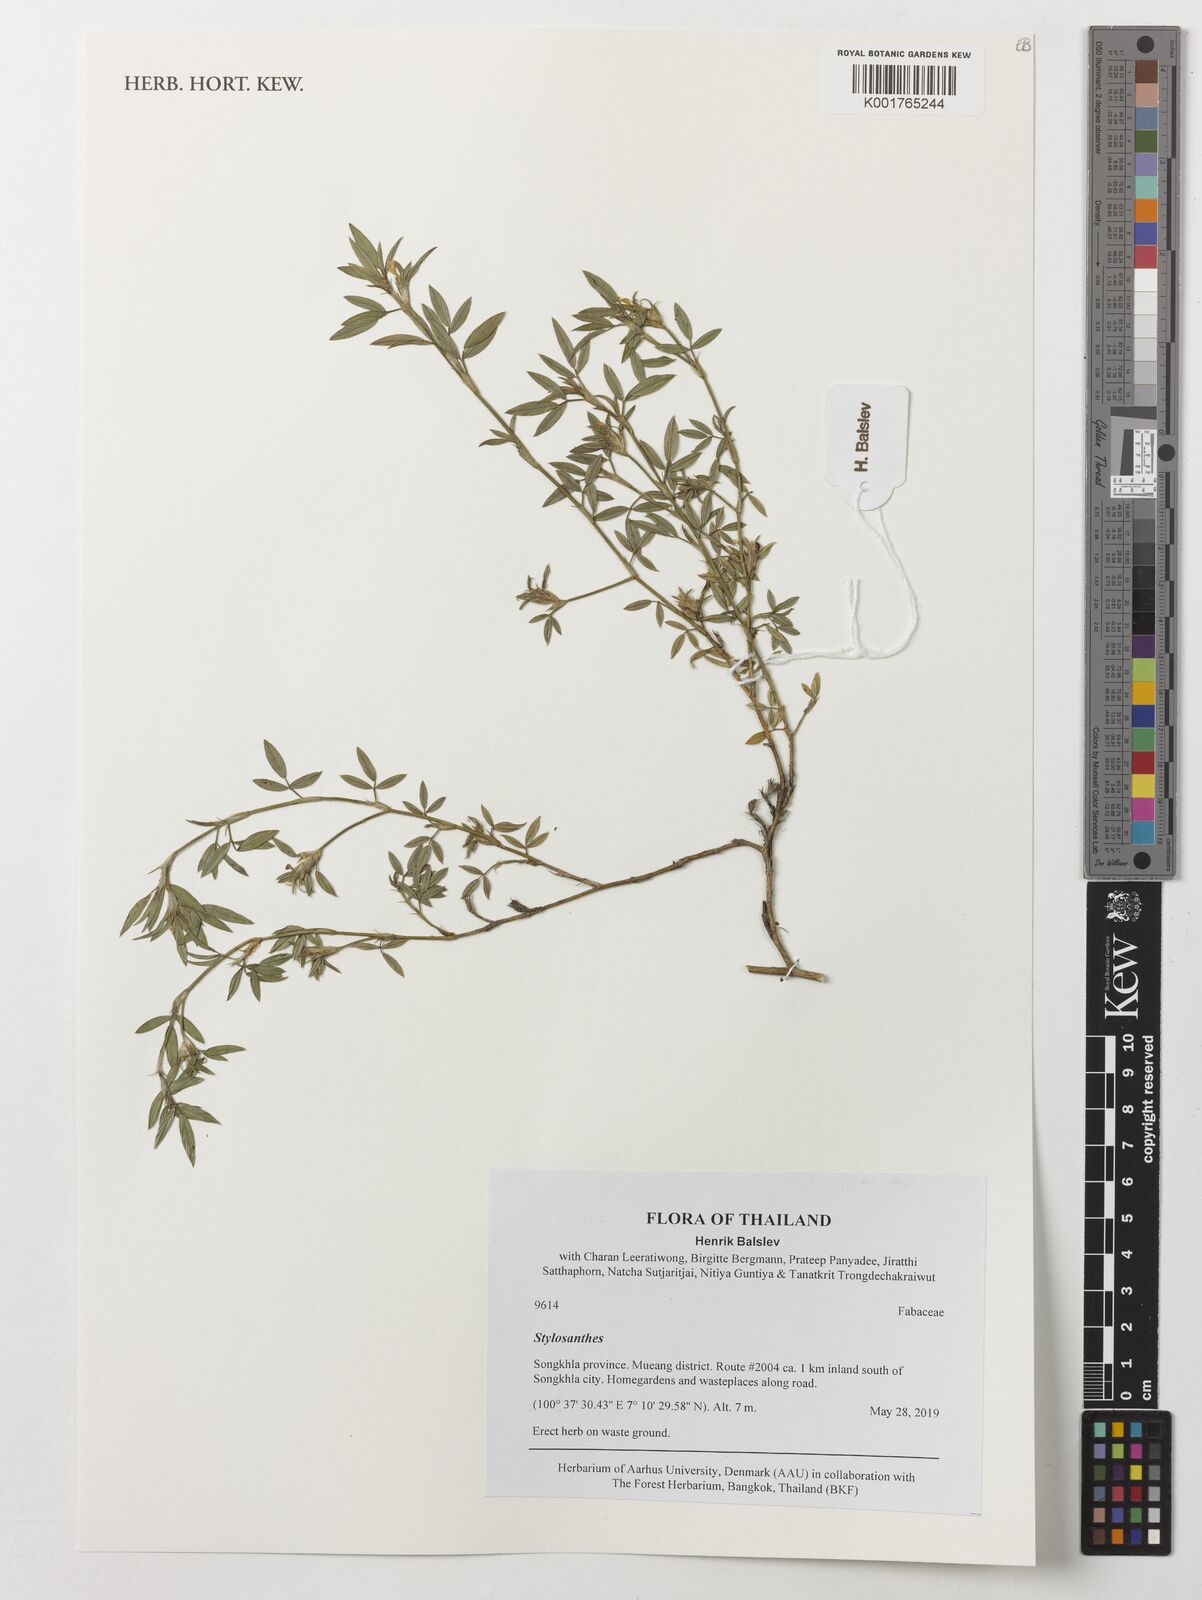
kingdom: Plantae
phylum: Tracheophyta
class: Magnoliopsida
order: Fabales
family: Fabaceae
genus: Stylosanthes
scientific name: Stylosanthes
